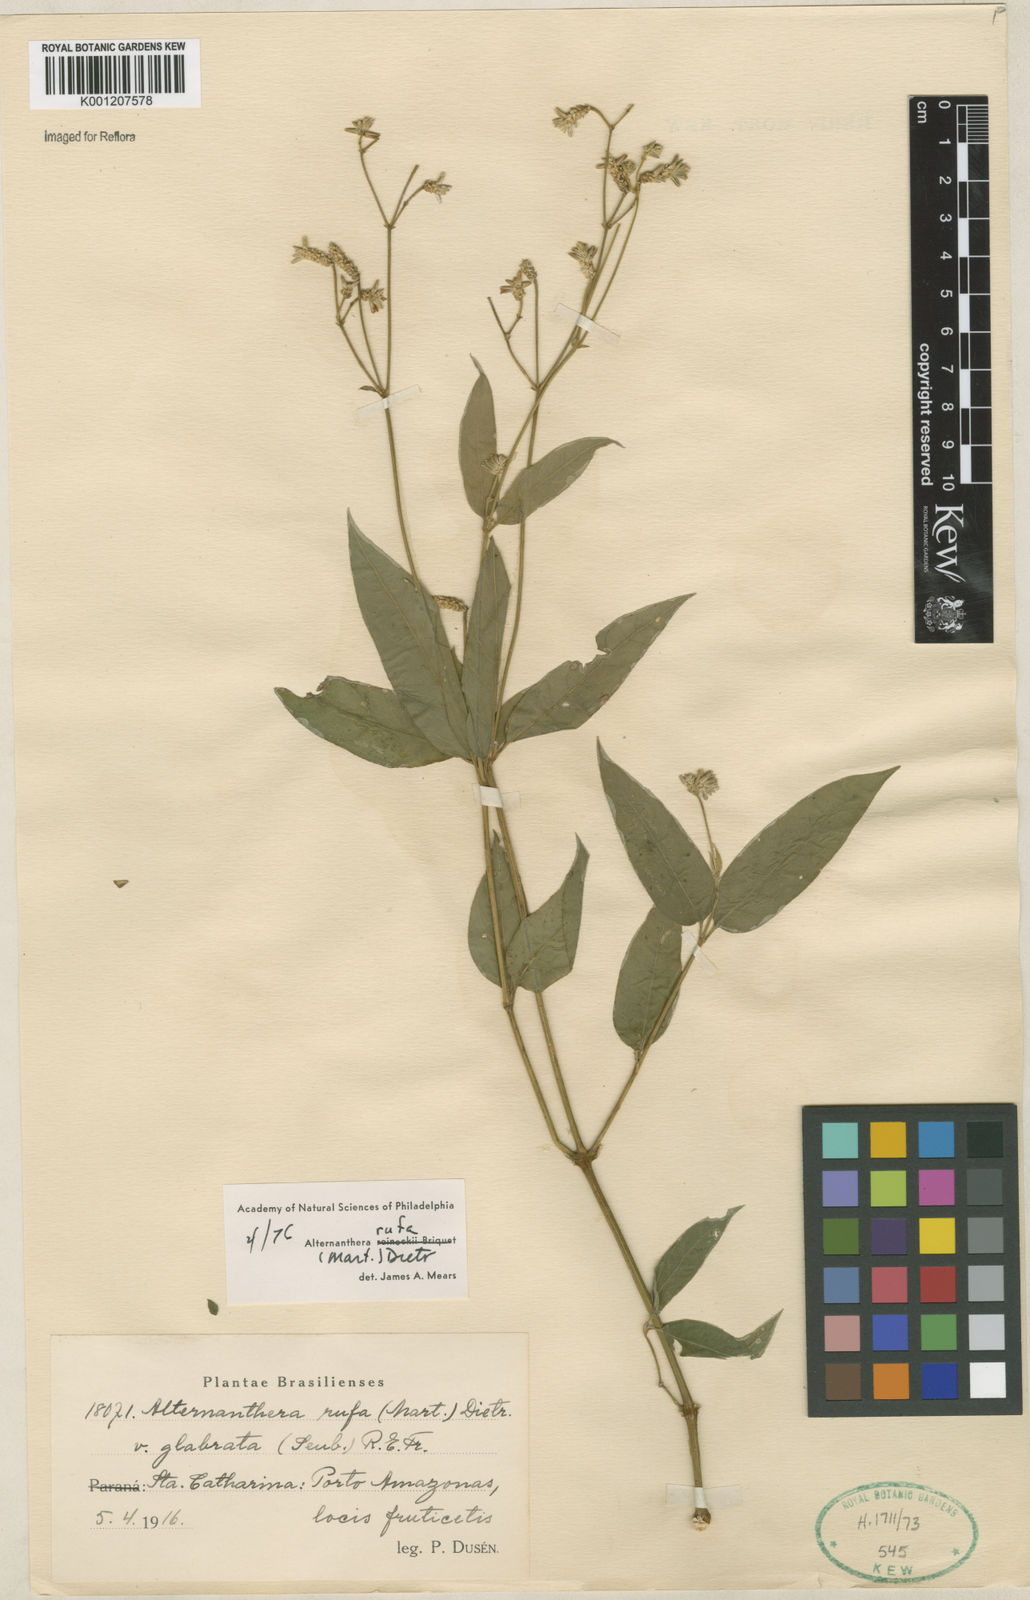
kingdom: Plantae
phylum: Tracheophyta
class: Magnoliopsida
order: Caryophyllales
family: Amaranthaceae
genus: Alternanthera
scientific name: Alternanthera rufa
